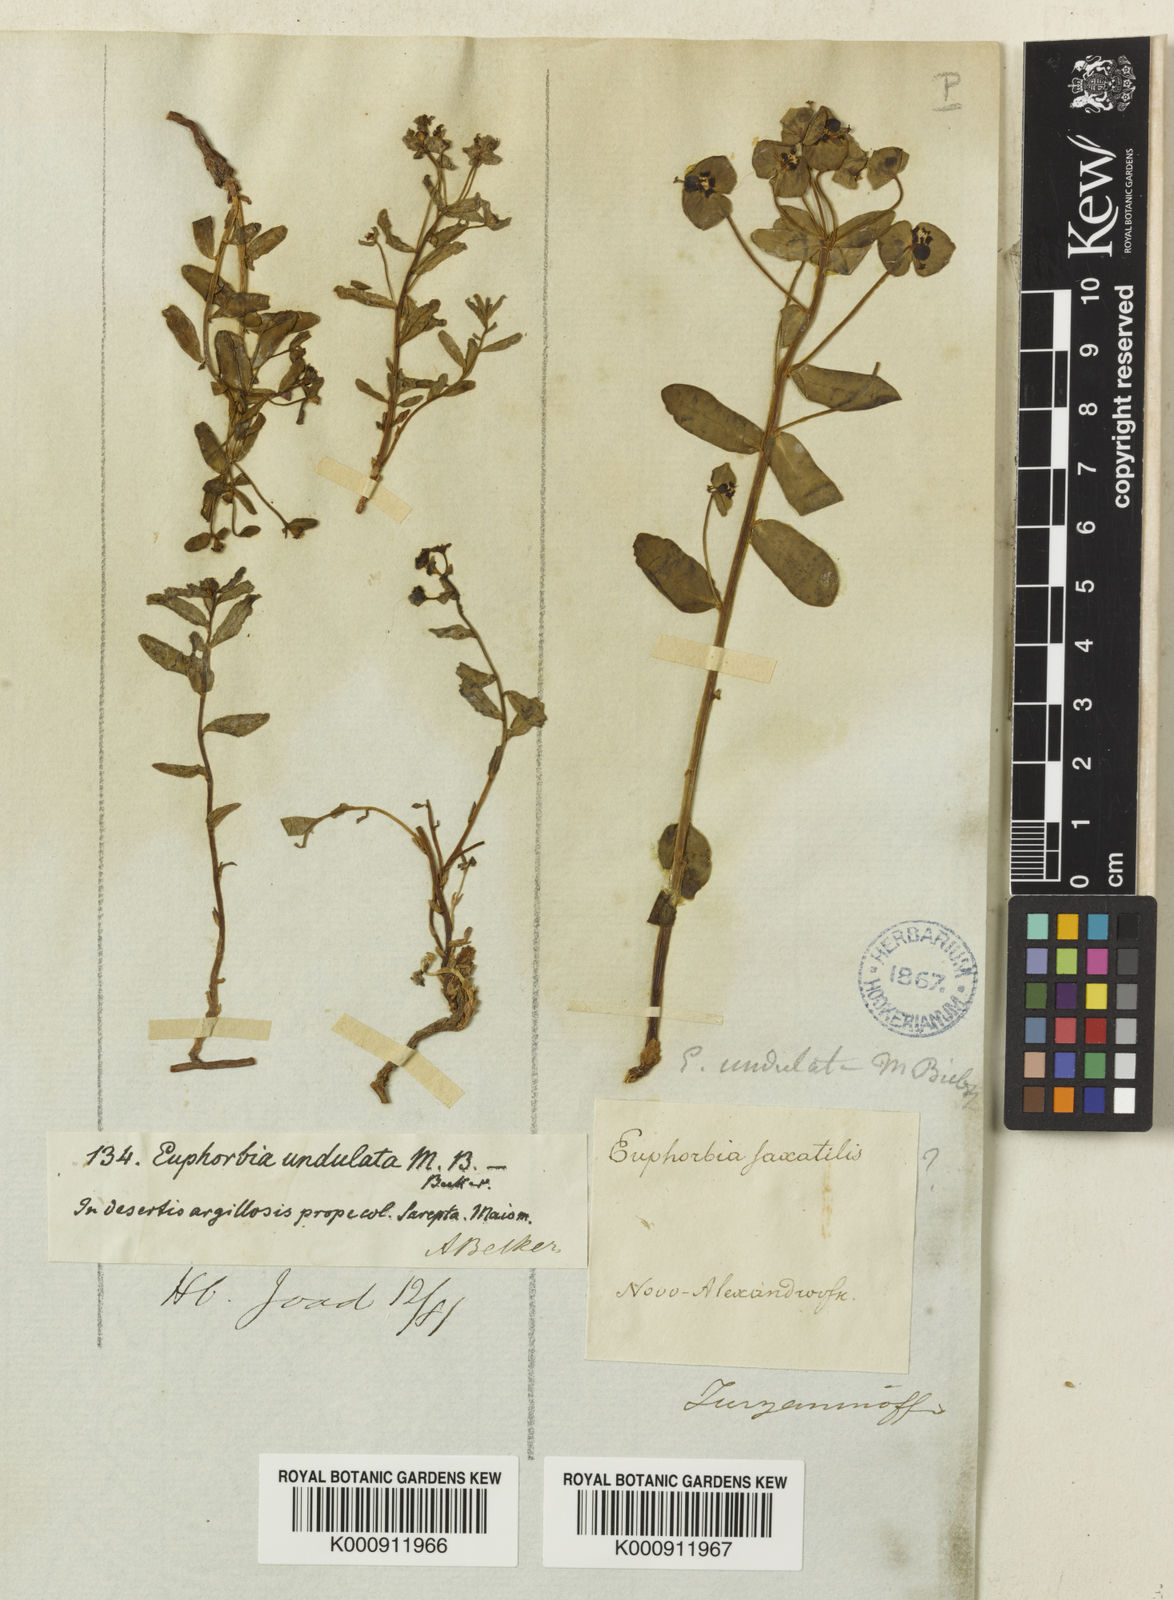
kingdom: Plantae
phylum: Tracheophyta
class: Magnoliopsida
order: Malpighiales
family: Euphorbiaceae
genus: Euphorbia
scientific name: Euphorbia
